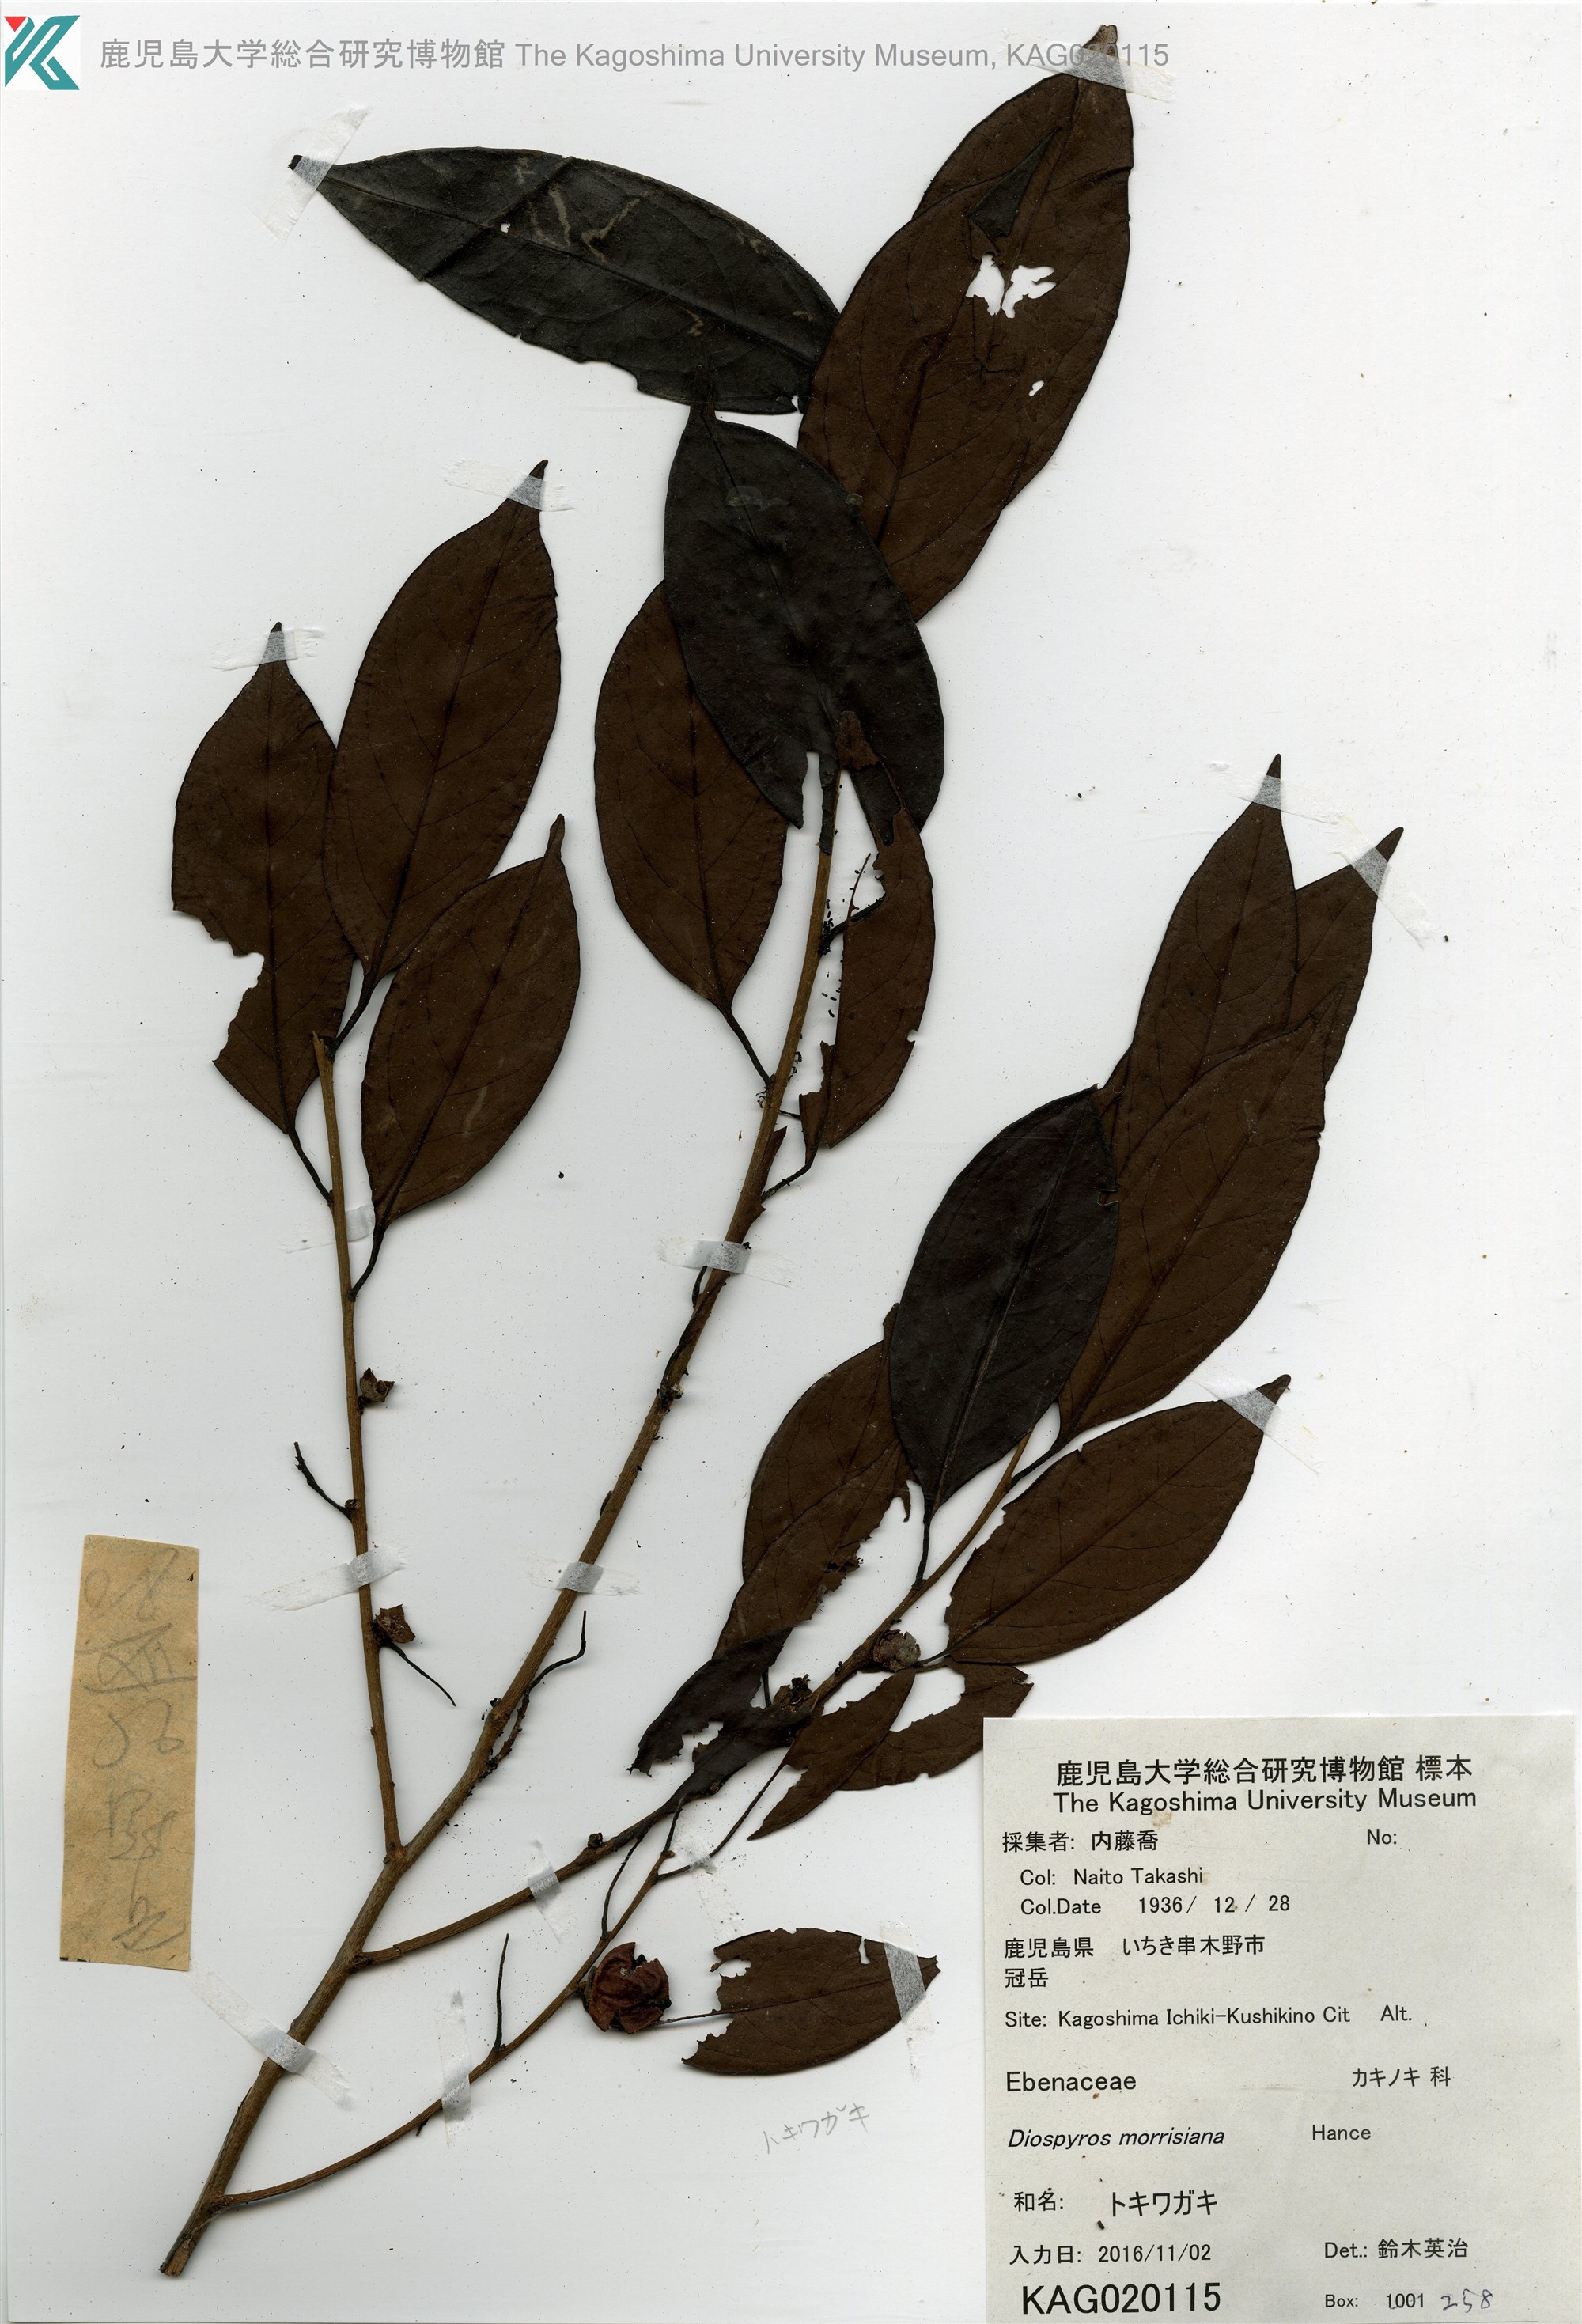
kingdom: Plantae
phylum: Tracheophyta
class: Magnoliopsida
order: Ericales
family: Ebenaceae
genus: Diospyros
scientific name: Diospyros morrisiana
